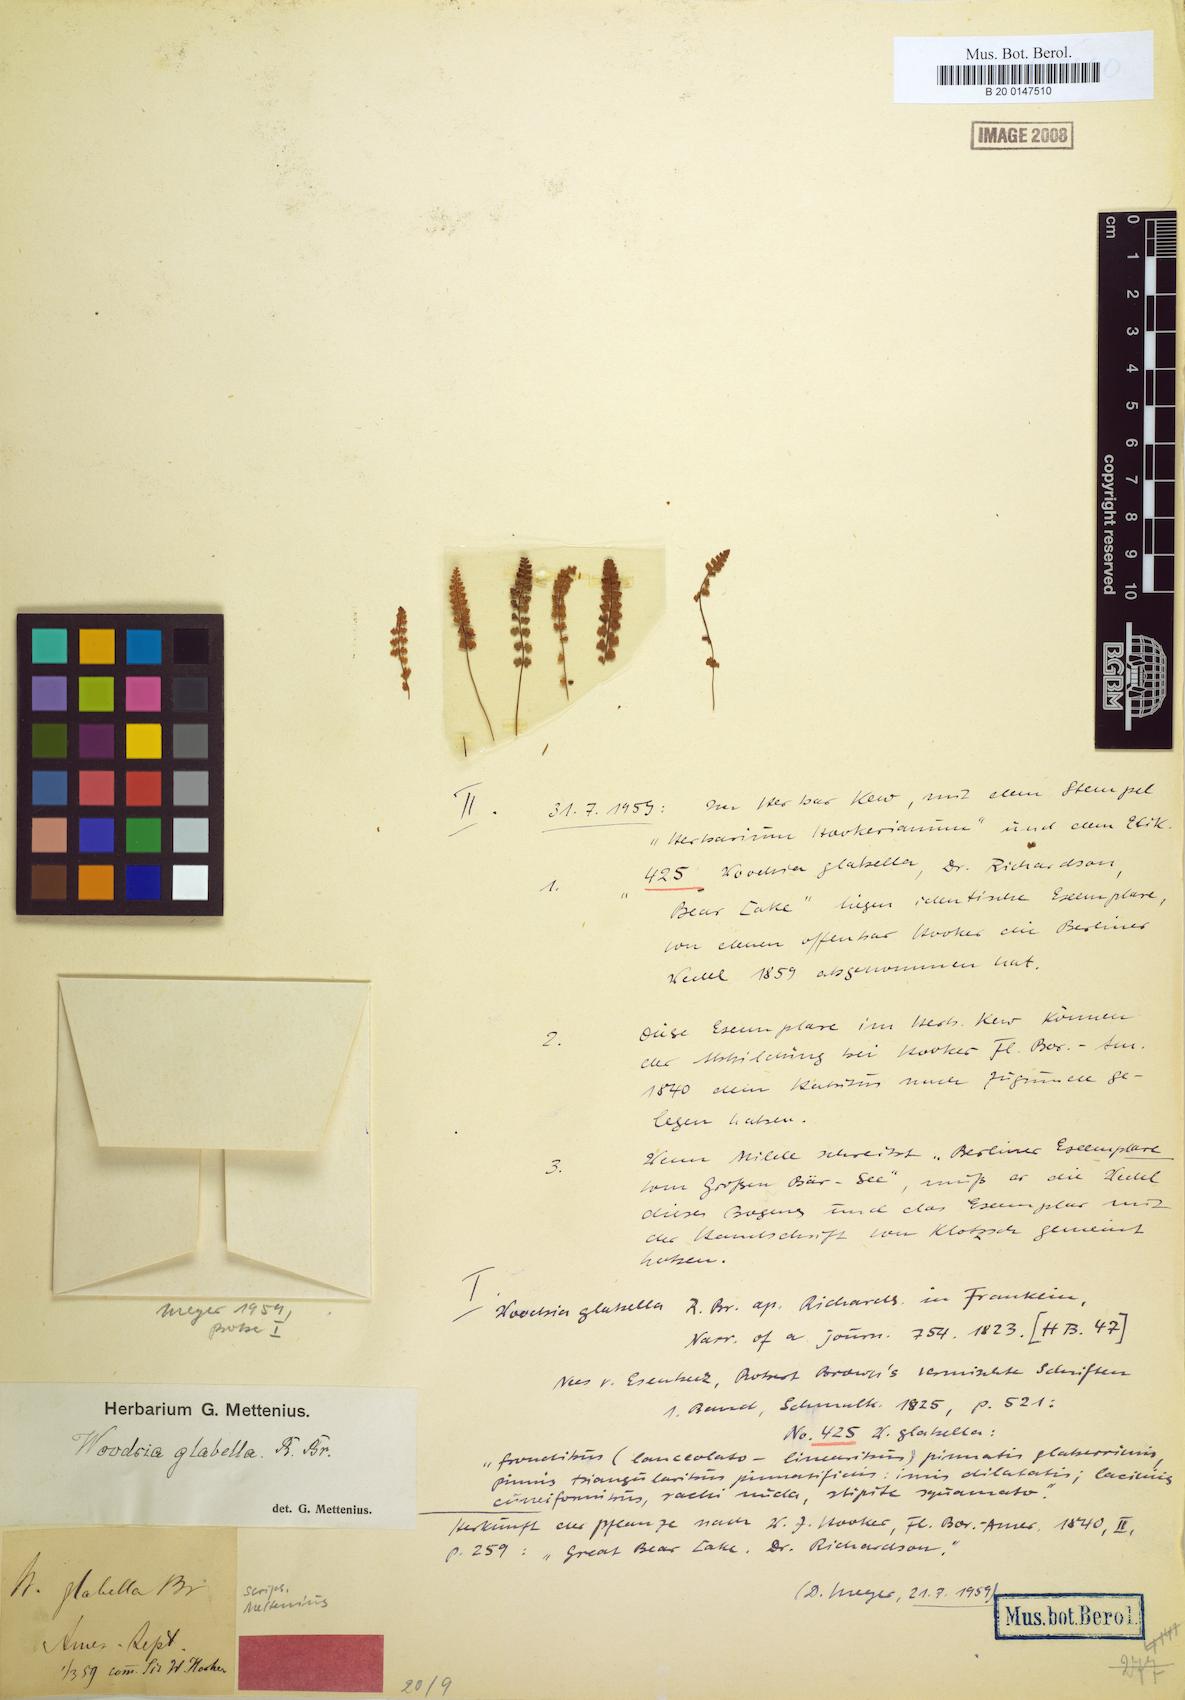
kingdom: Plantae
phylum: Tracheophyta
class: Polypodiopsida
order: Polypodiales
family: Woodsiaceae
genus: Woodsia
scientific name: Woodsia glabella
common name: Smooth woodsia
